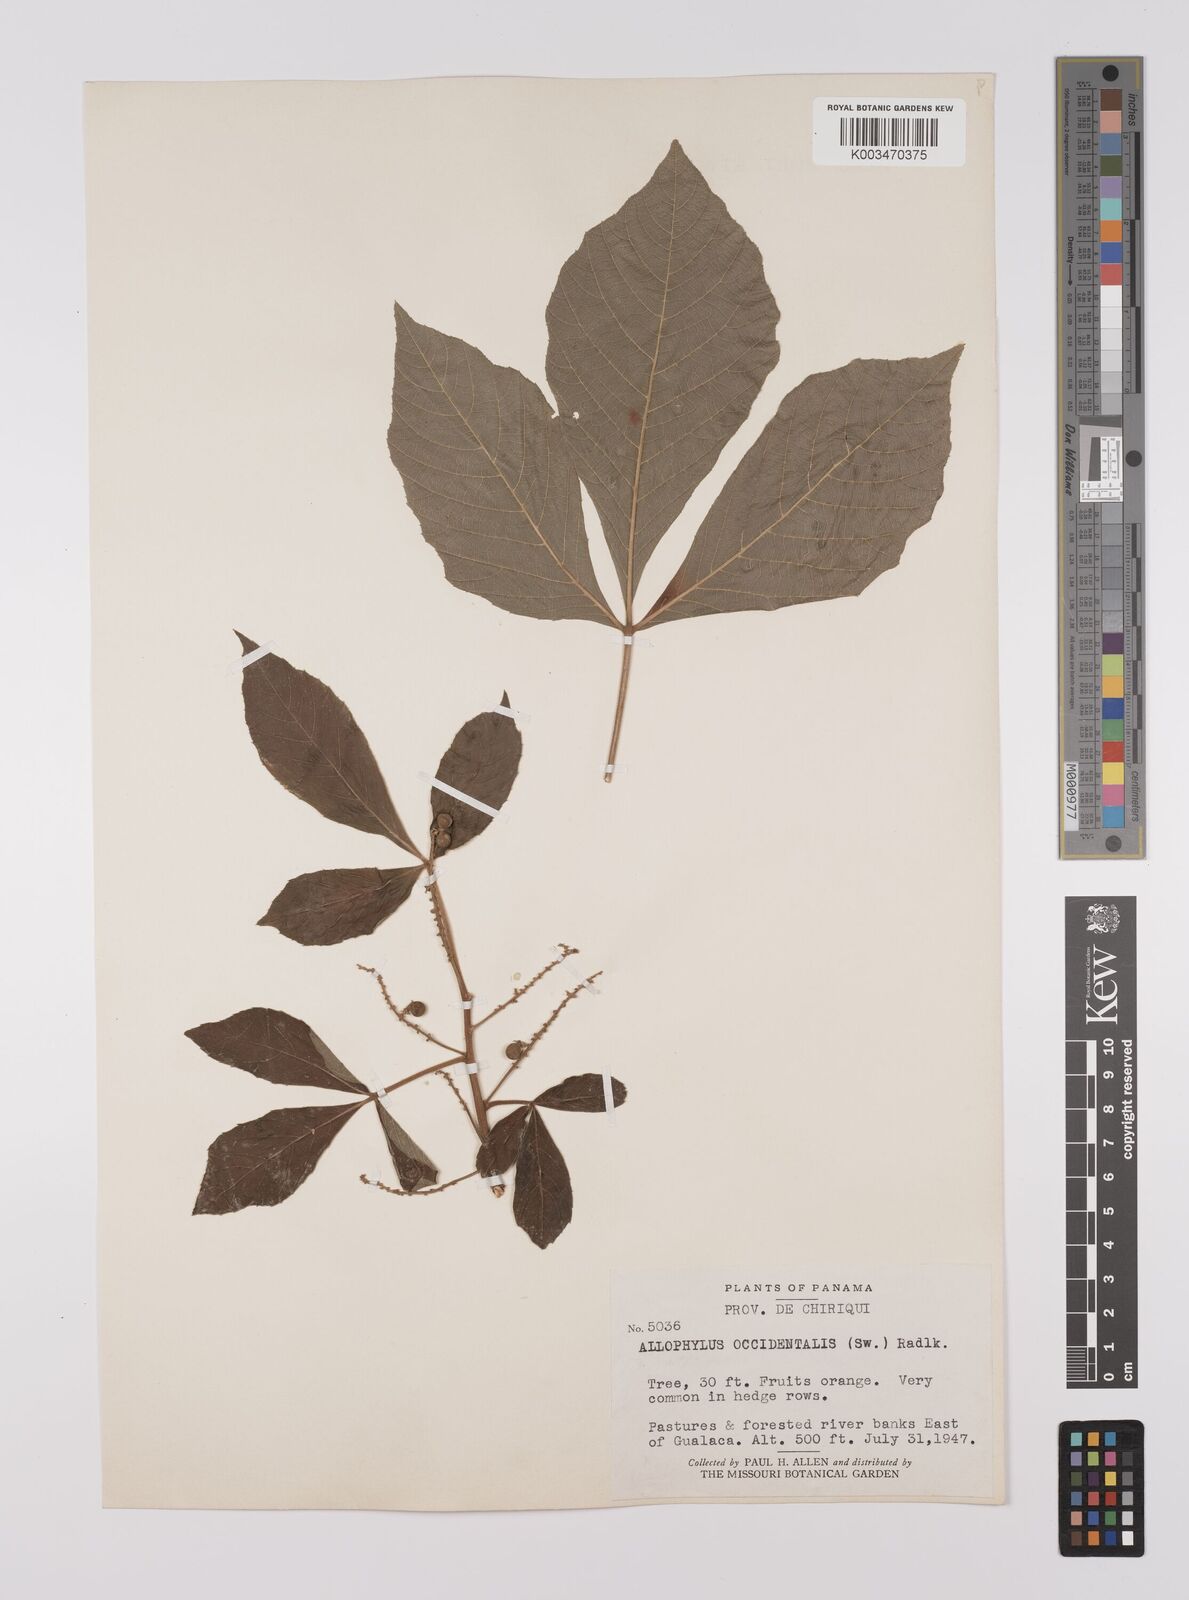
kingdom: Plantae
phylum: Tracheophyta
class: Magnoliopsida
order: Sapindales
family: Sapindaceae
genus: Allophylus
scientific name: Allophylus
